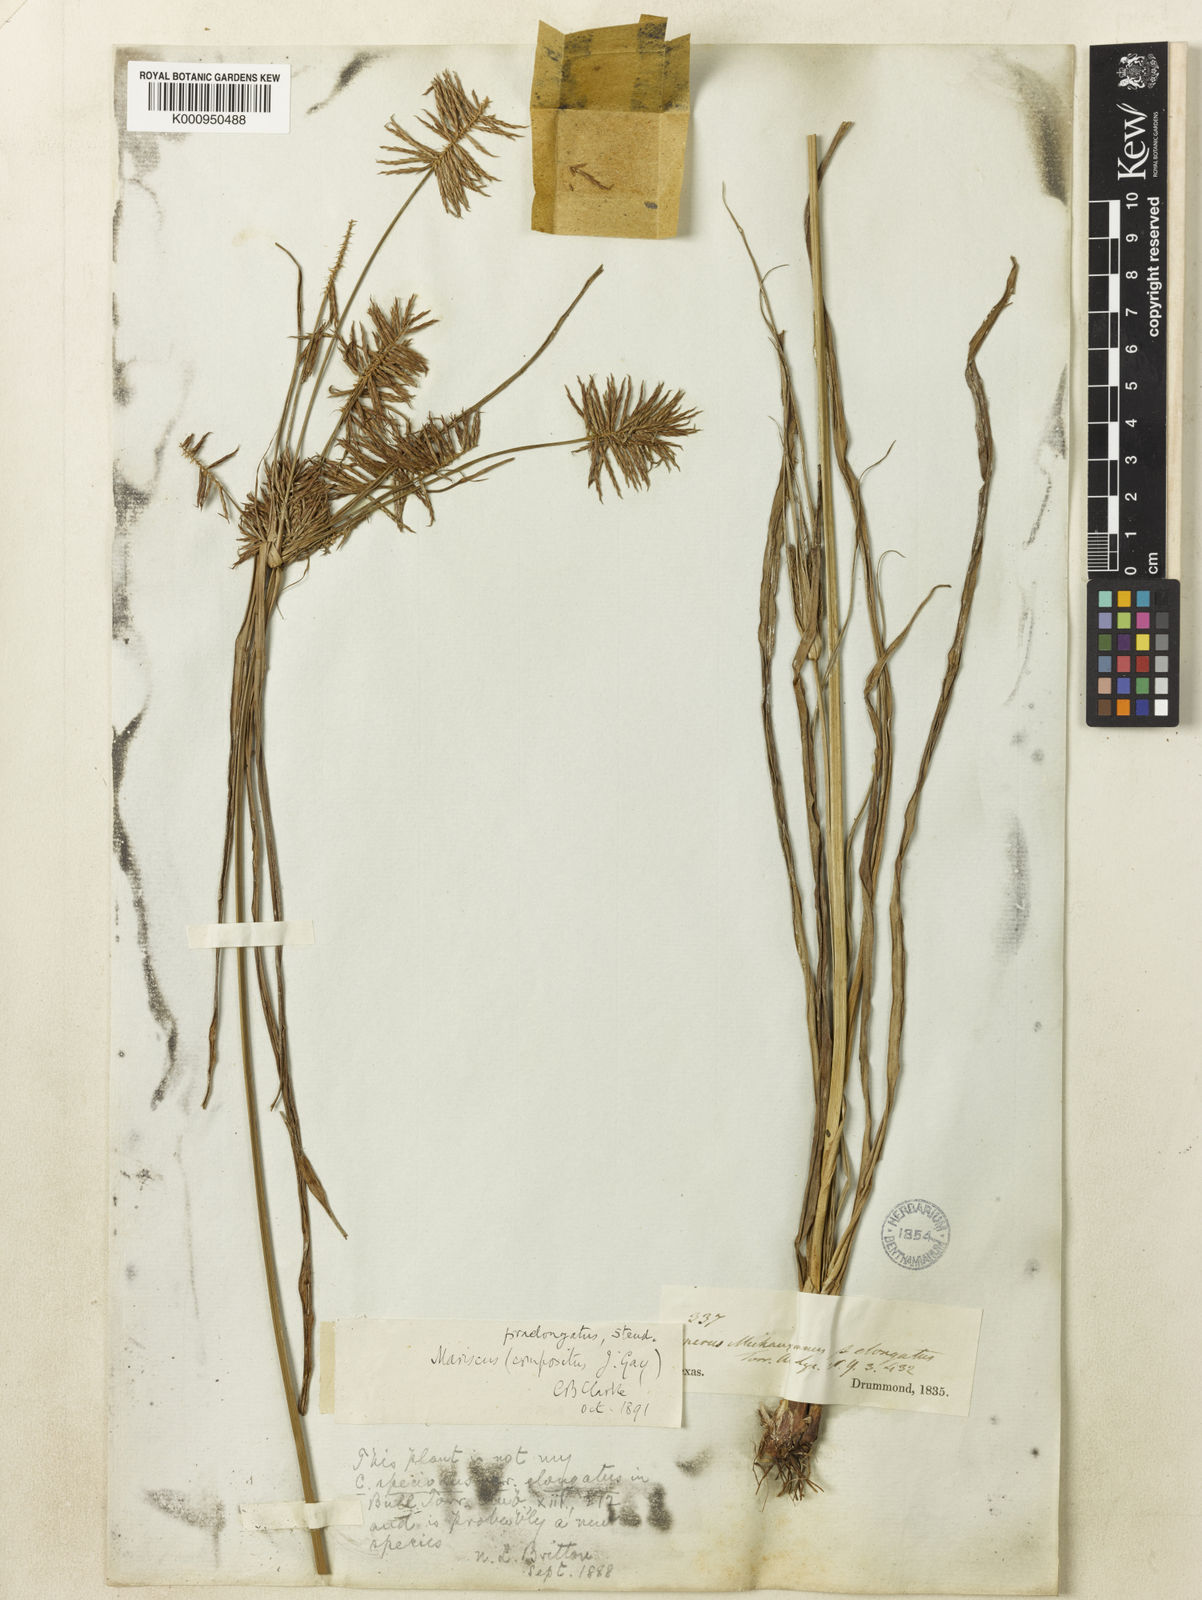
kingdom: Plantae
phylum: Tracheophyta
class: Liliopsida
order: Poales
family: Cyperaceae
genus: Cyperus
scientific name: Cyperus strigosus
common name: False nutsedge
